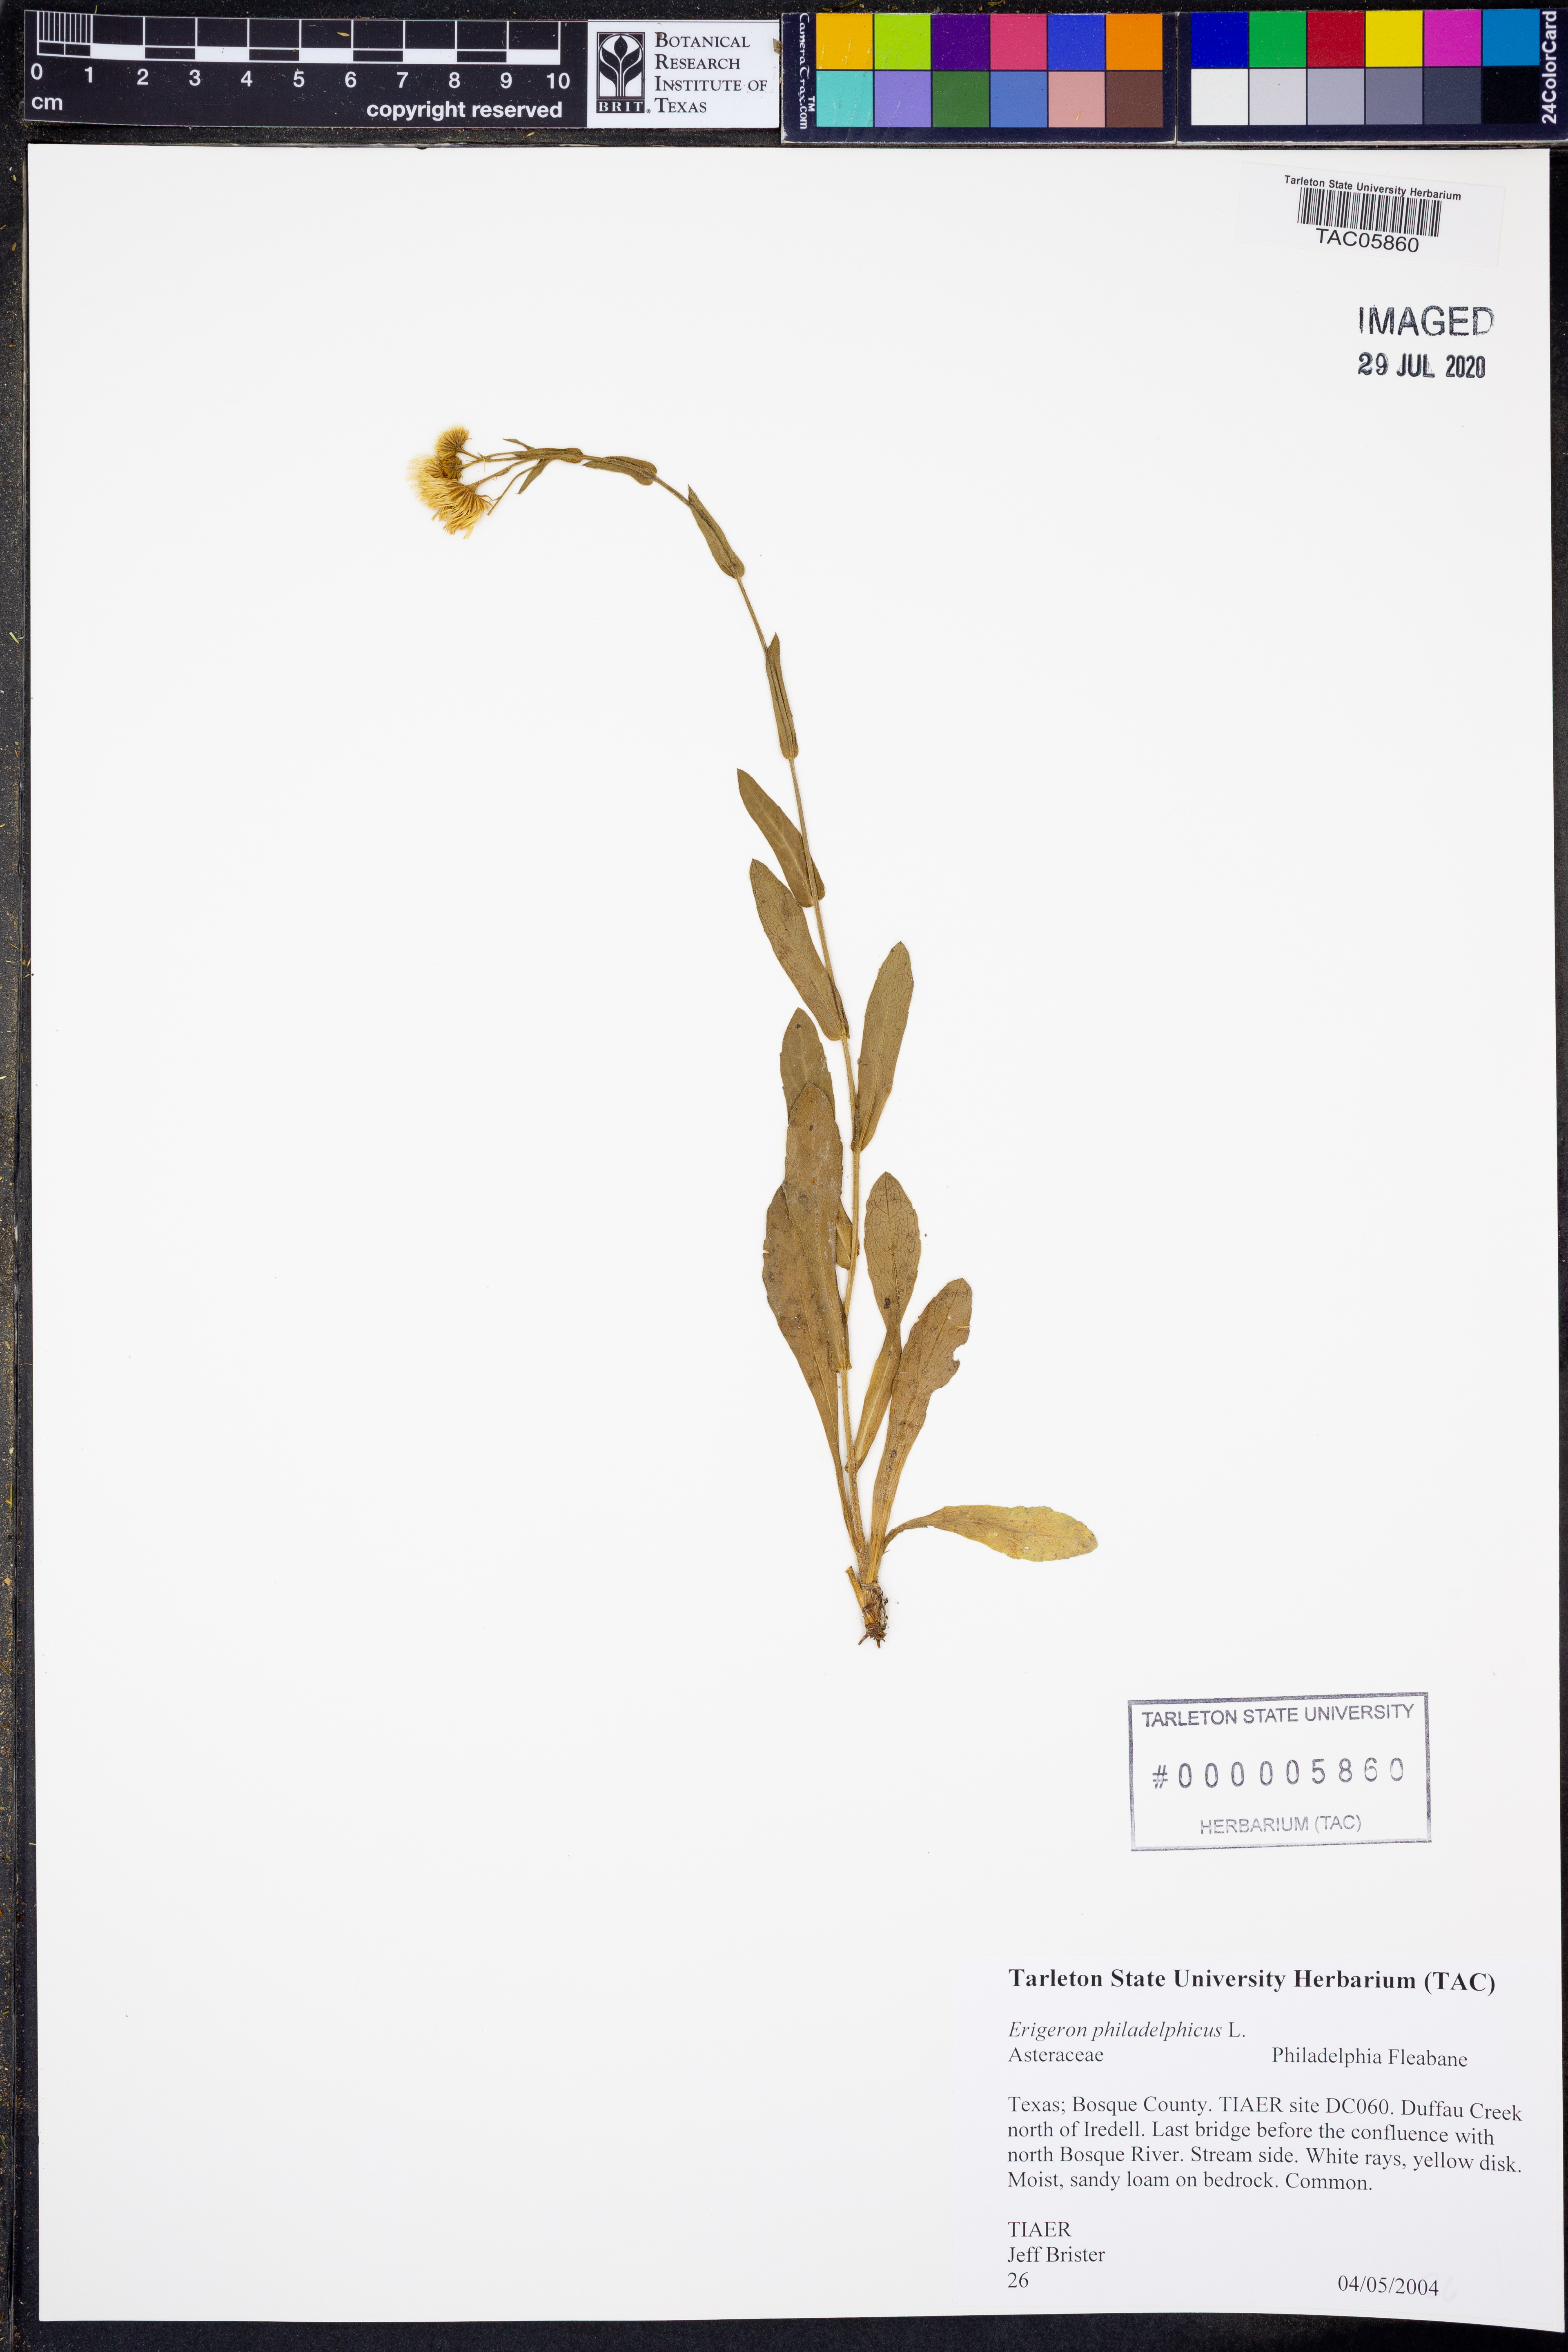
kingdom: Plantae
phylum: Tracheophyta
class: Magnoliopsida
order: Asterales
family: Asteraceae
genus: Erigeron
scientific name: Erigeron philadelphicus
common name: Robin's-plantain
